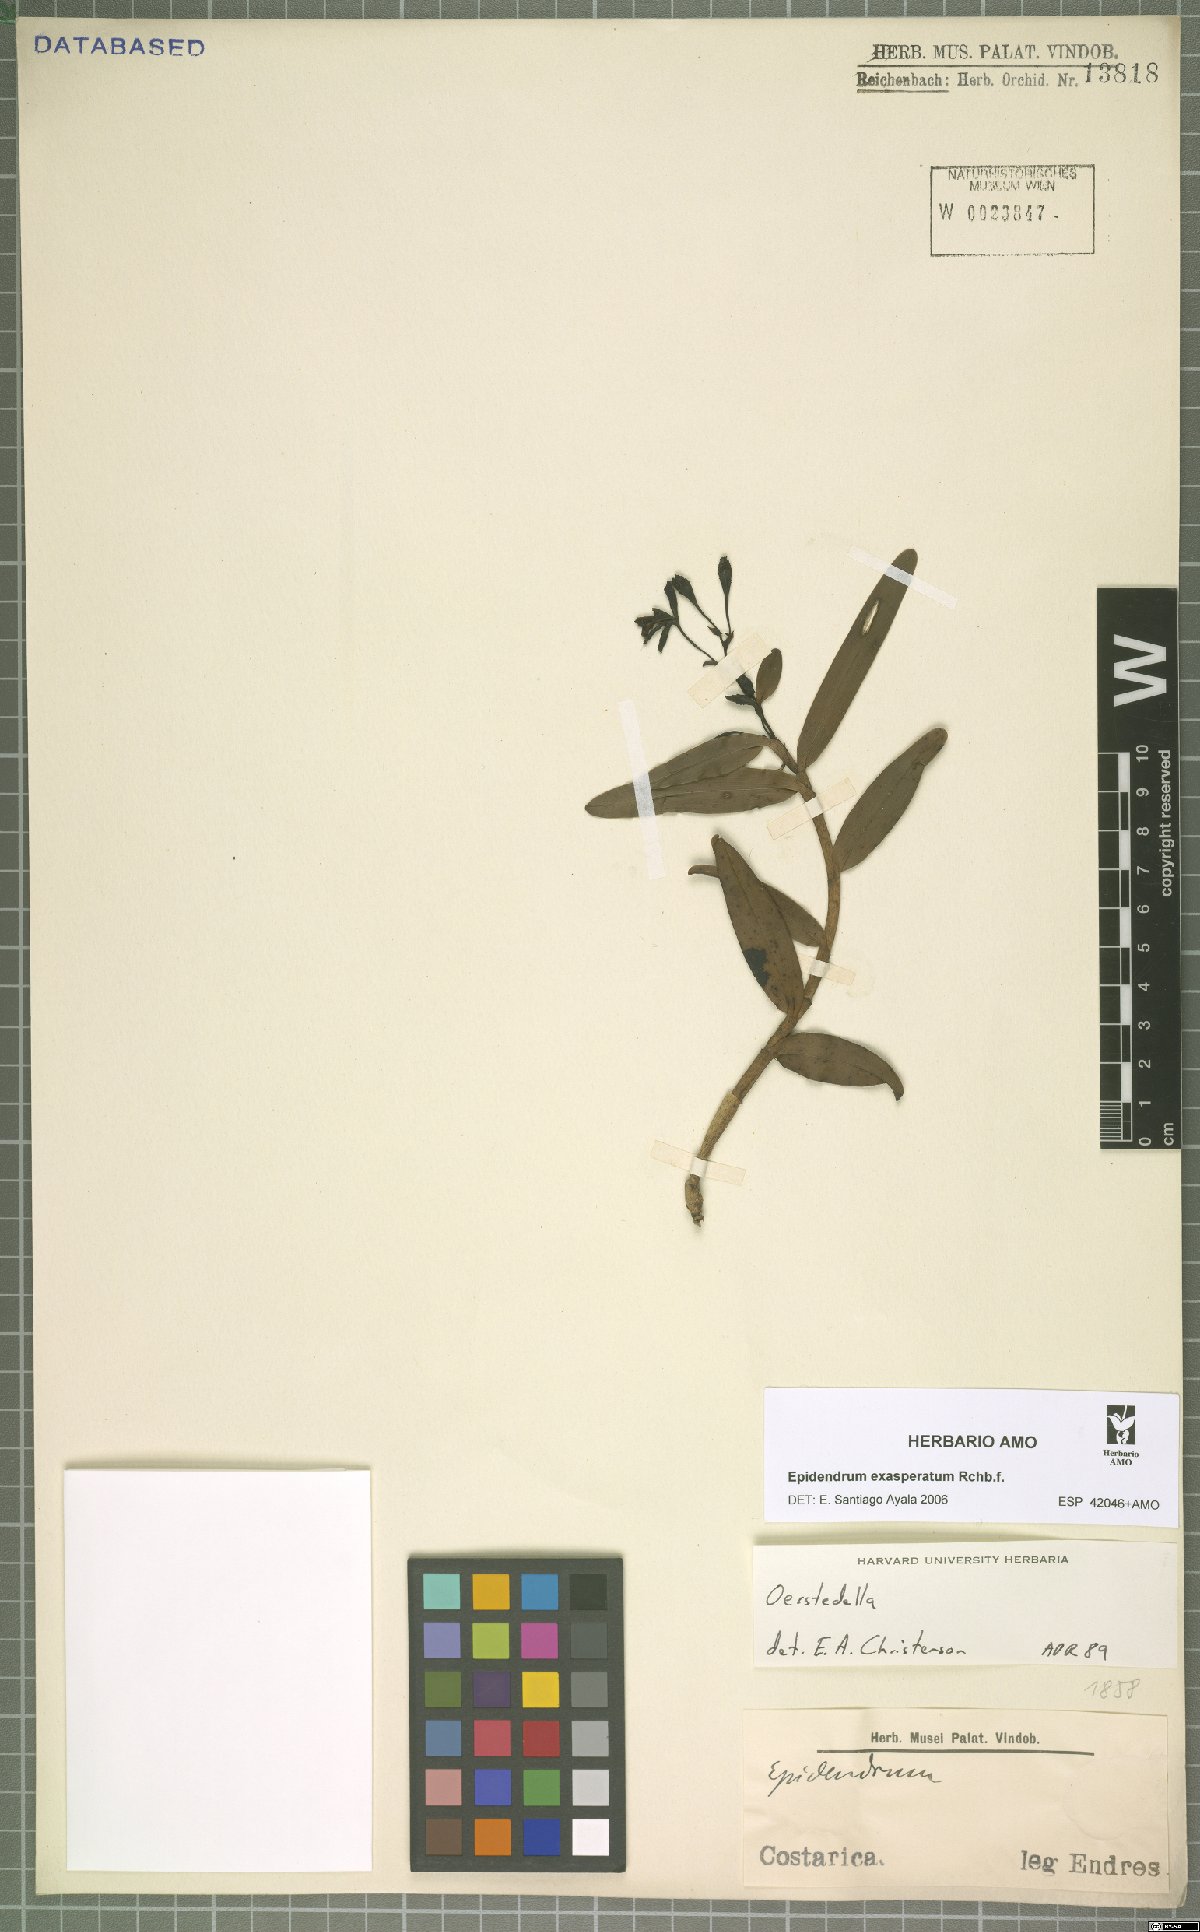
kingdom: Plantae
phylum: Tracheophyta
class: Liliopsida
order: Asparagales
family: Orchidaceae
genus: Epidendrum
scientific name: Epidendrum exasperatum
